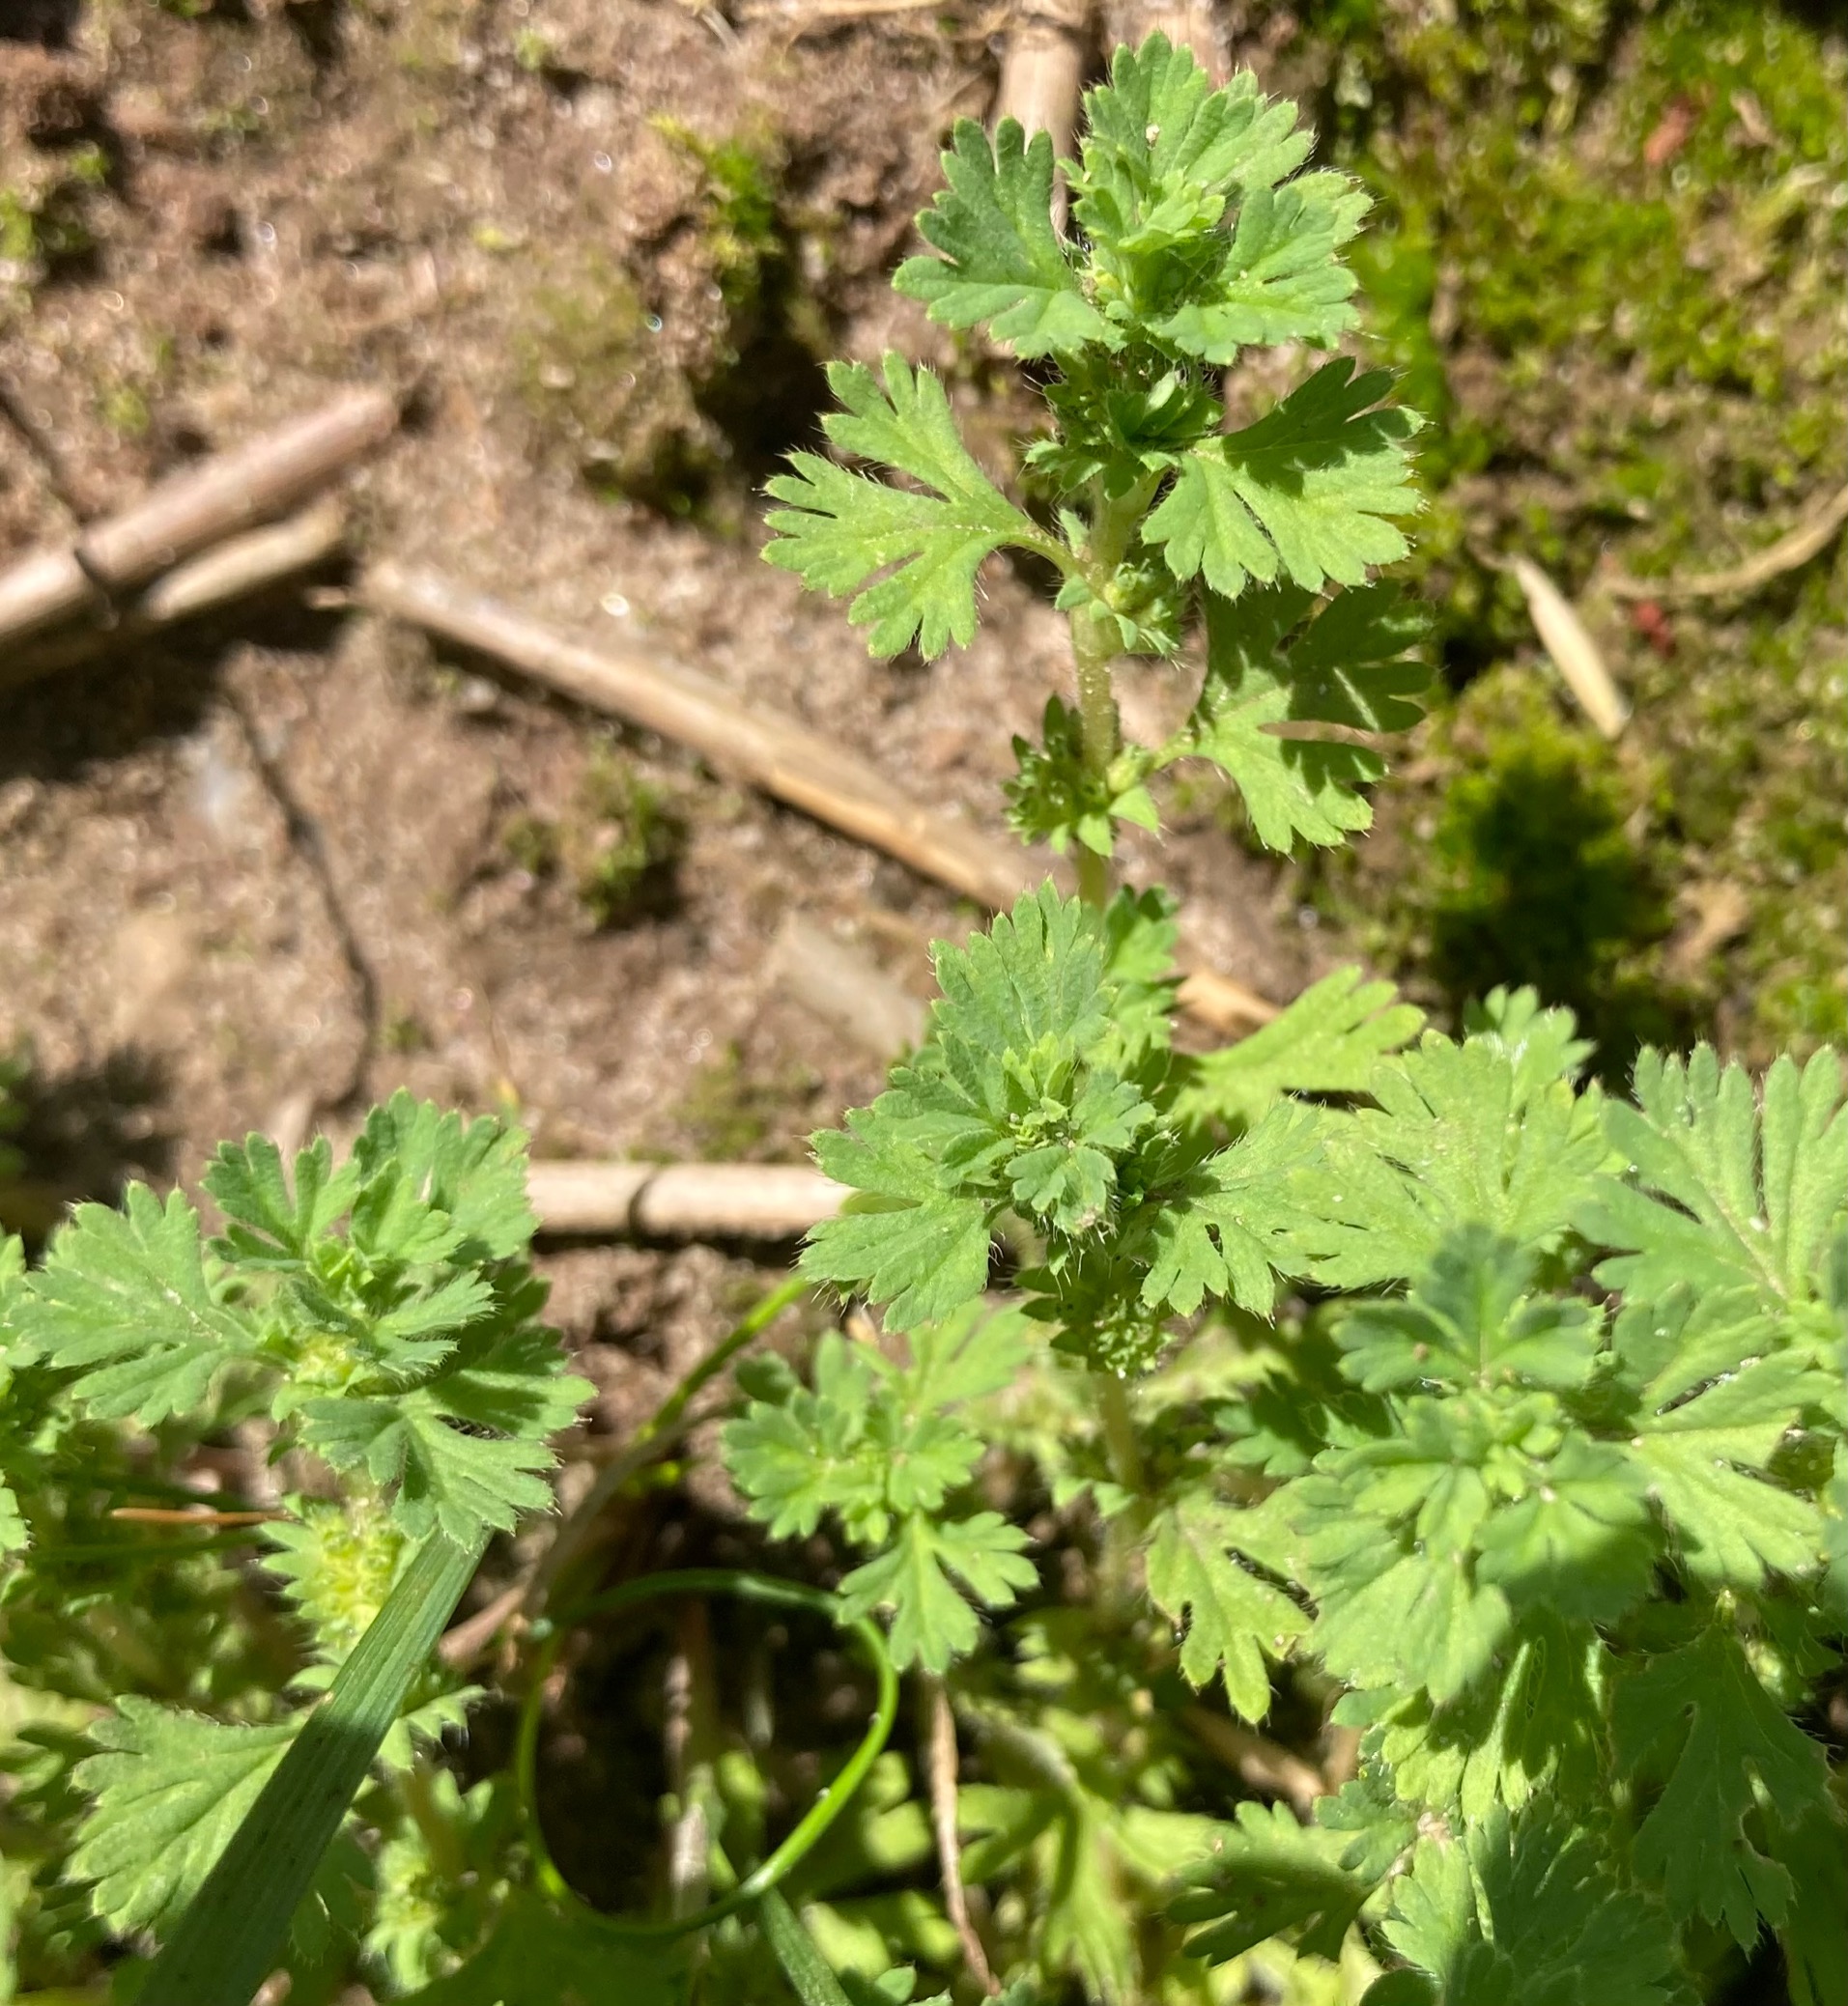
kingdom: Plantae
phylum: Tracheophyta
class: Magnoliopsida
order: Rosales
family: Rosaceae
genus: Aphanes
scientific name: Aphanes australis
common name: Småfrugtet dværgløvefod
